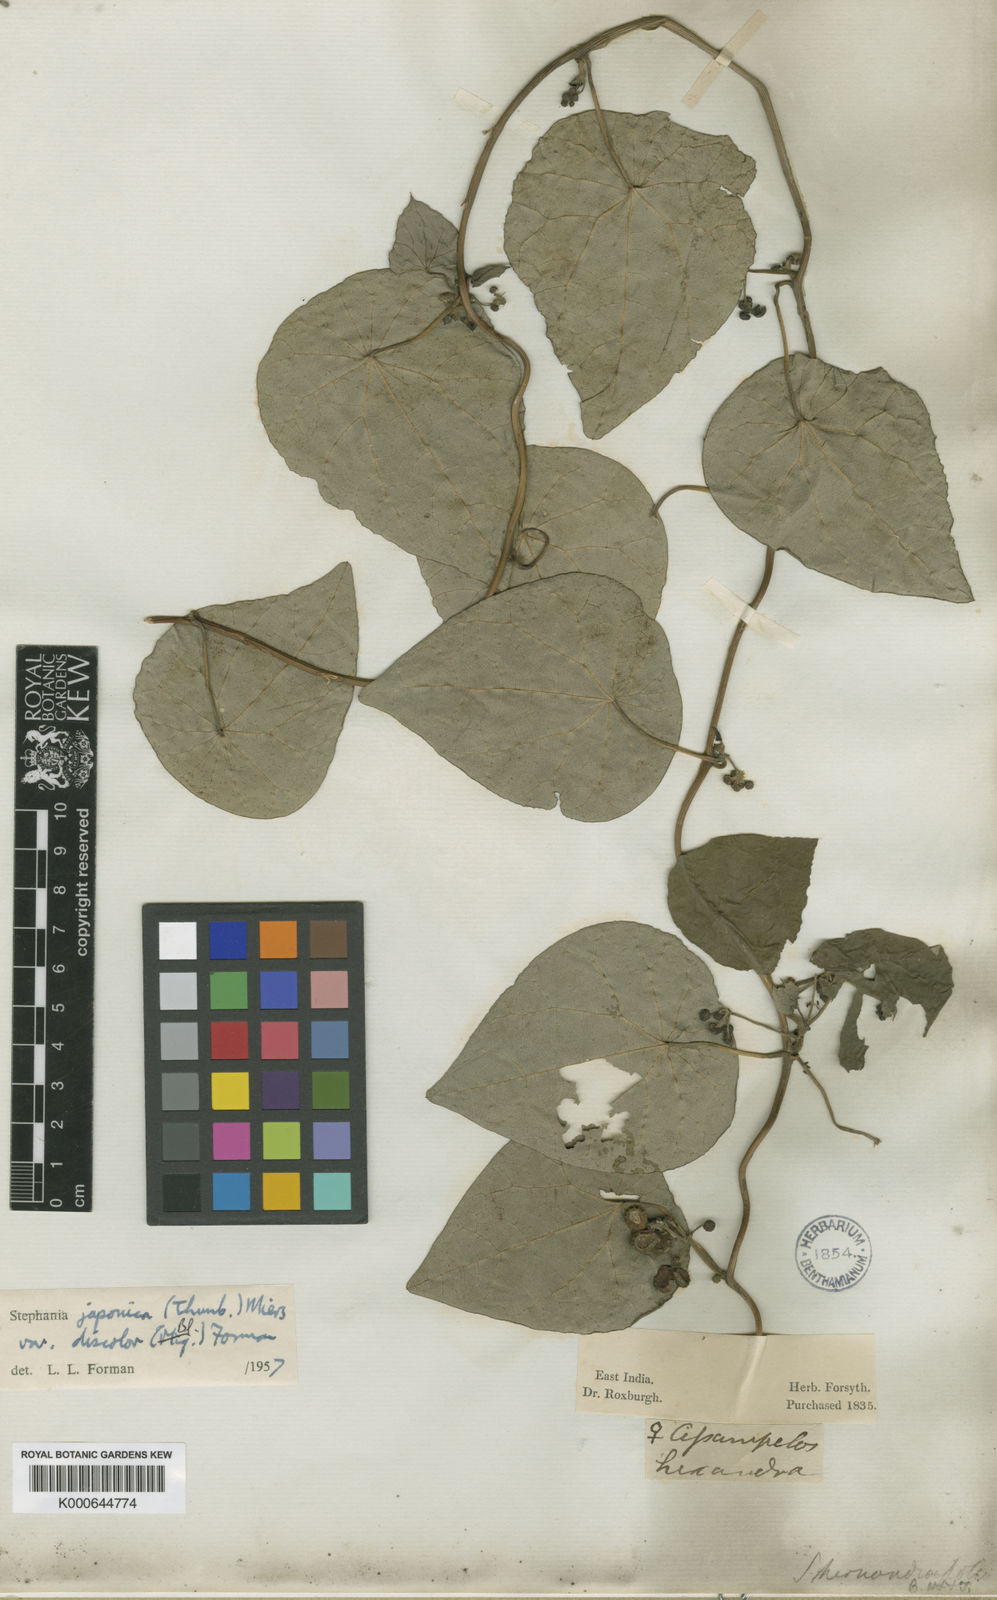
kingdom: Plantae
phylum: Tracheophyta
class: Magnoliopsida
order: Ranunculales
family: Menispermaceae
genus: Stephania
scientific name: Stephania japonica
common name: Snake vine
